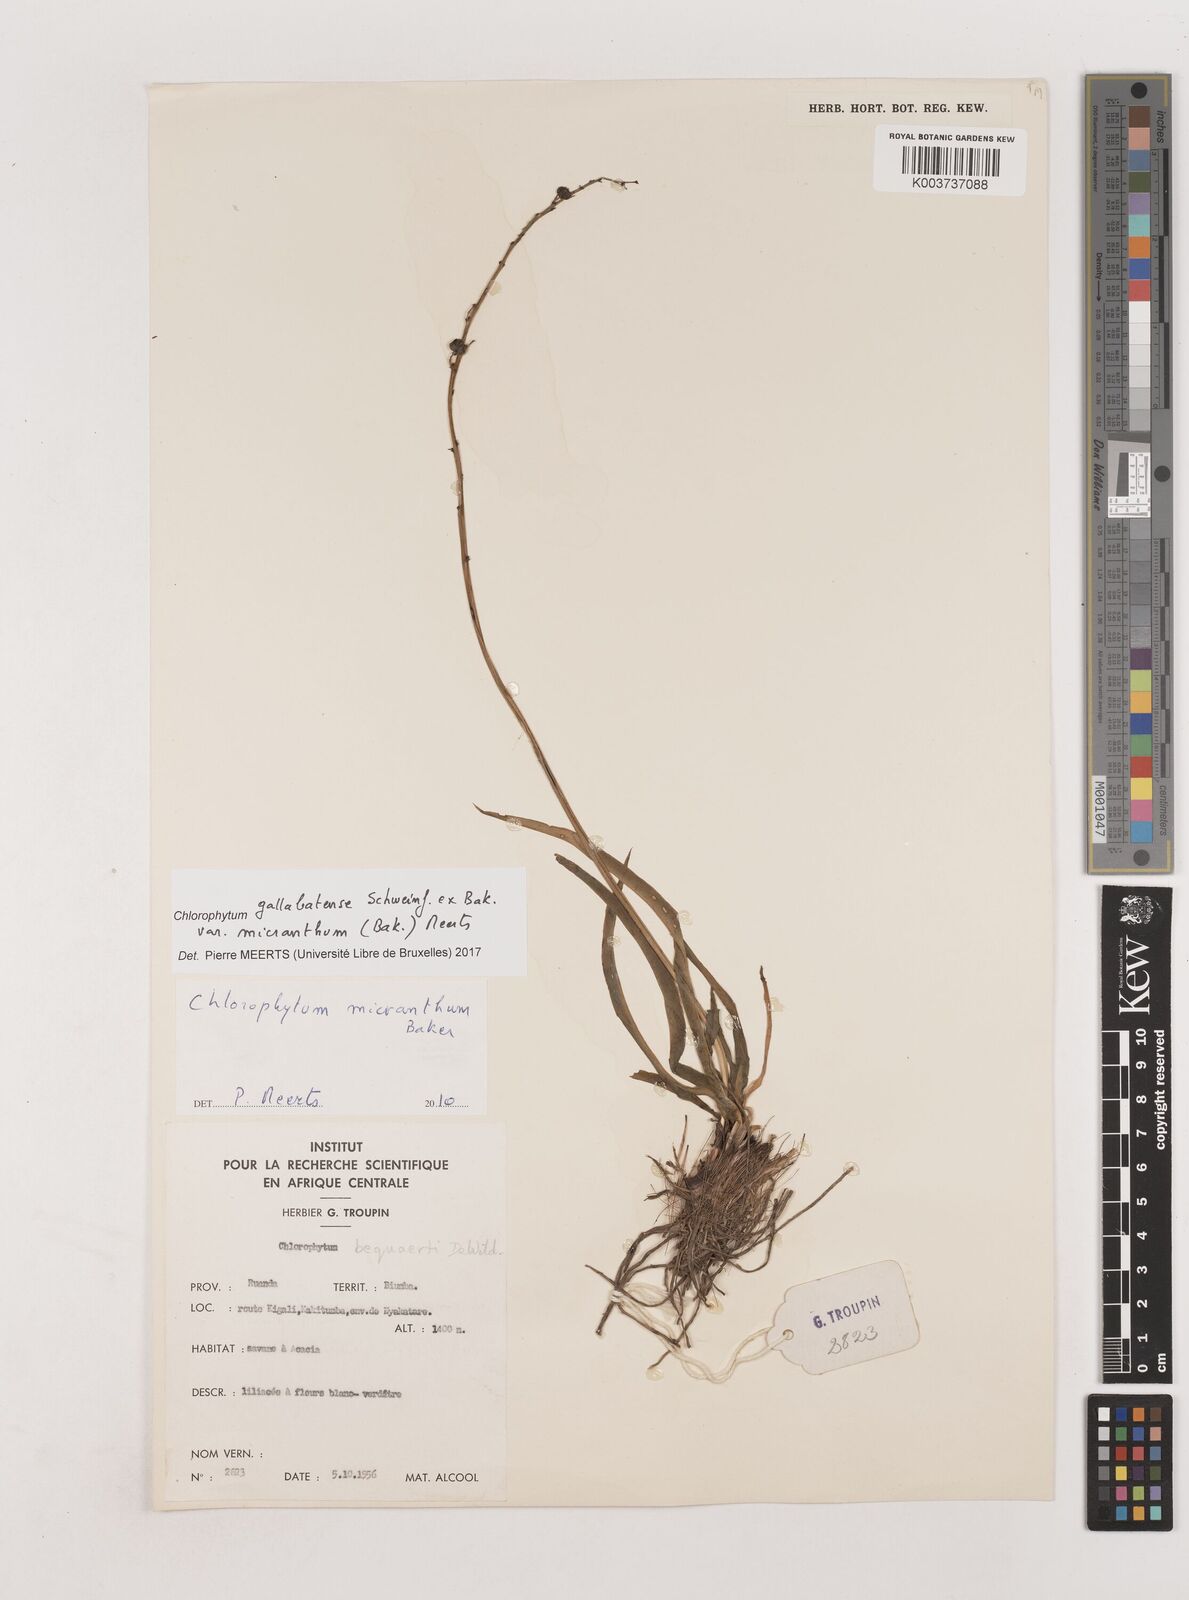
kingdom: Plantae
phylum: Tracheophyta
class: Liliopsida
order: Asparagales
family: Asparagaceae
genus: Chlorophytum
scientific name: Chlorophytum gallabatense
